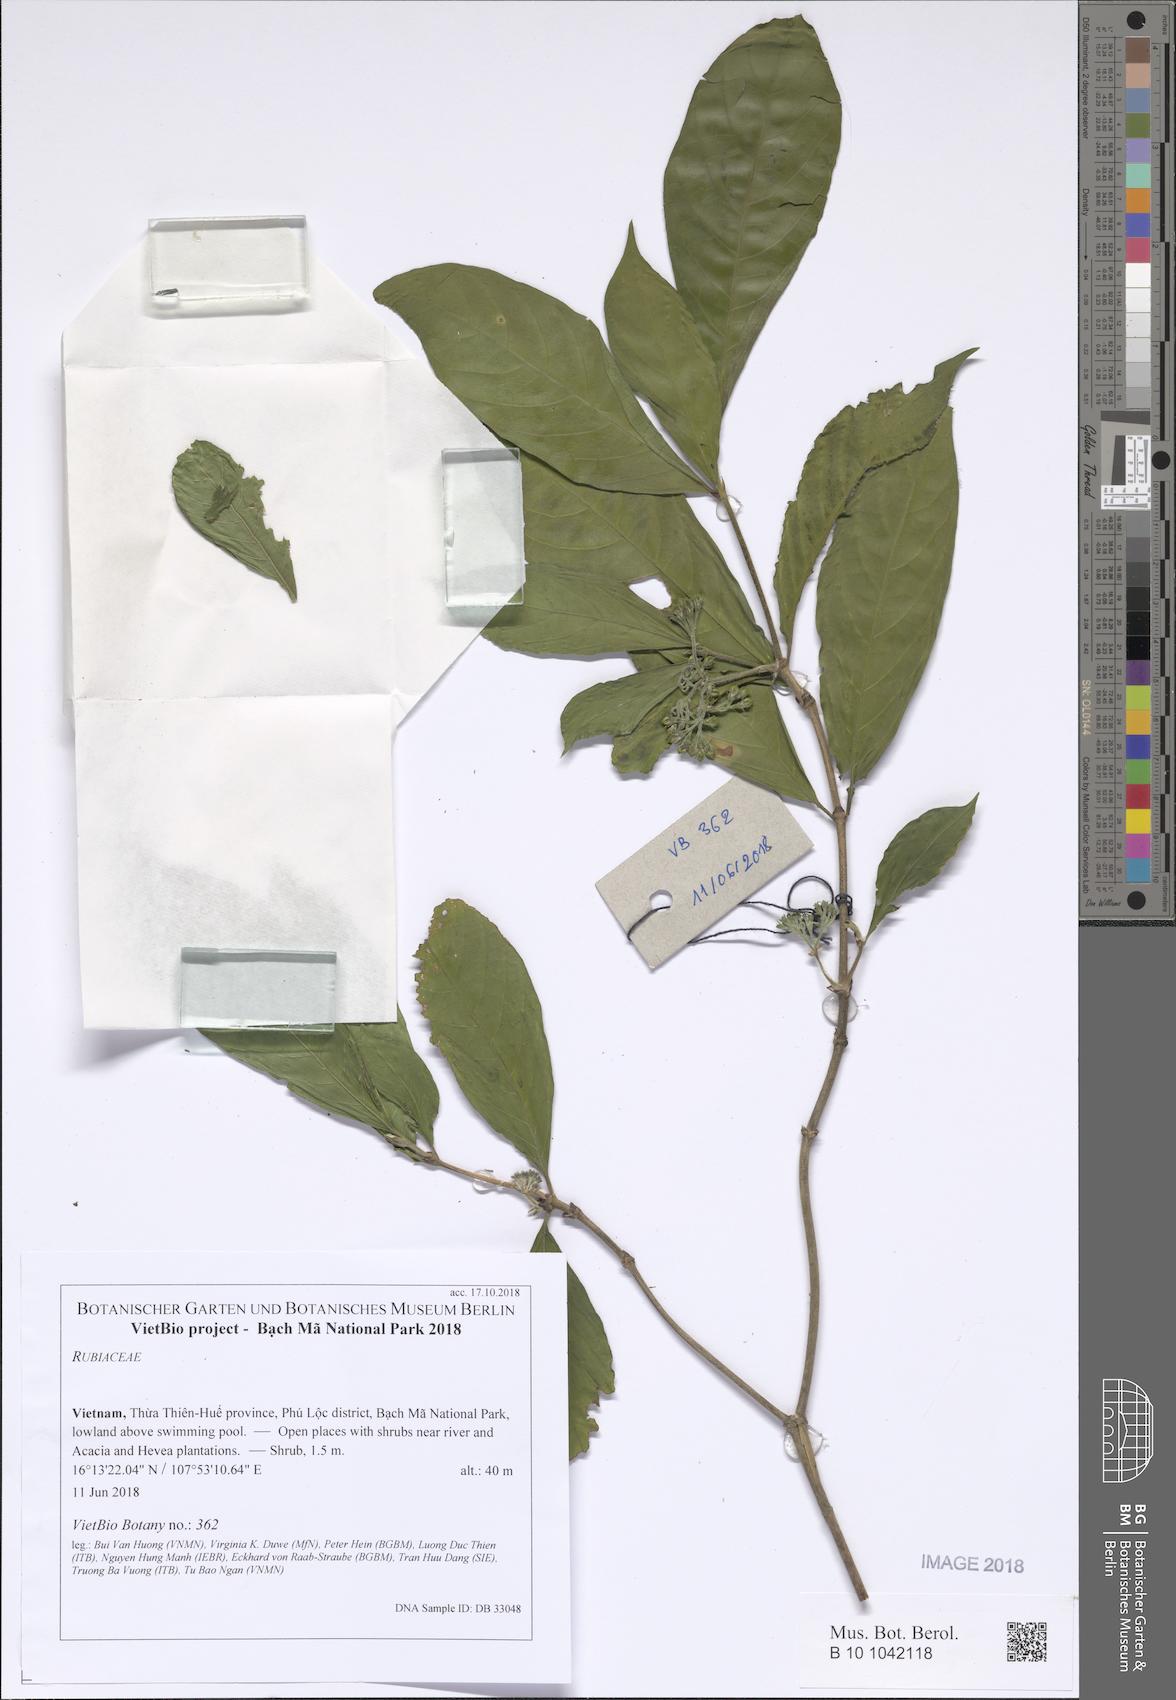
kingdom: Plantae
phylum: Tracheophyta
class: Magnoliopsida
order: Gentianales
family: Rubiaceae
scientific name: Rubiaceae
